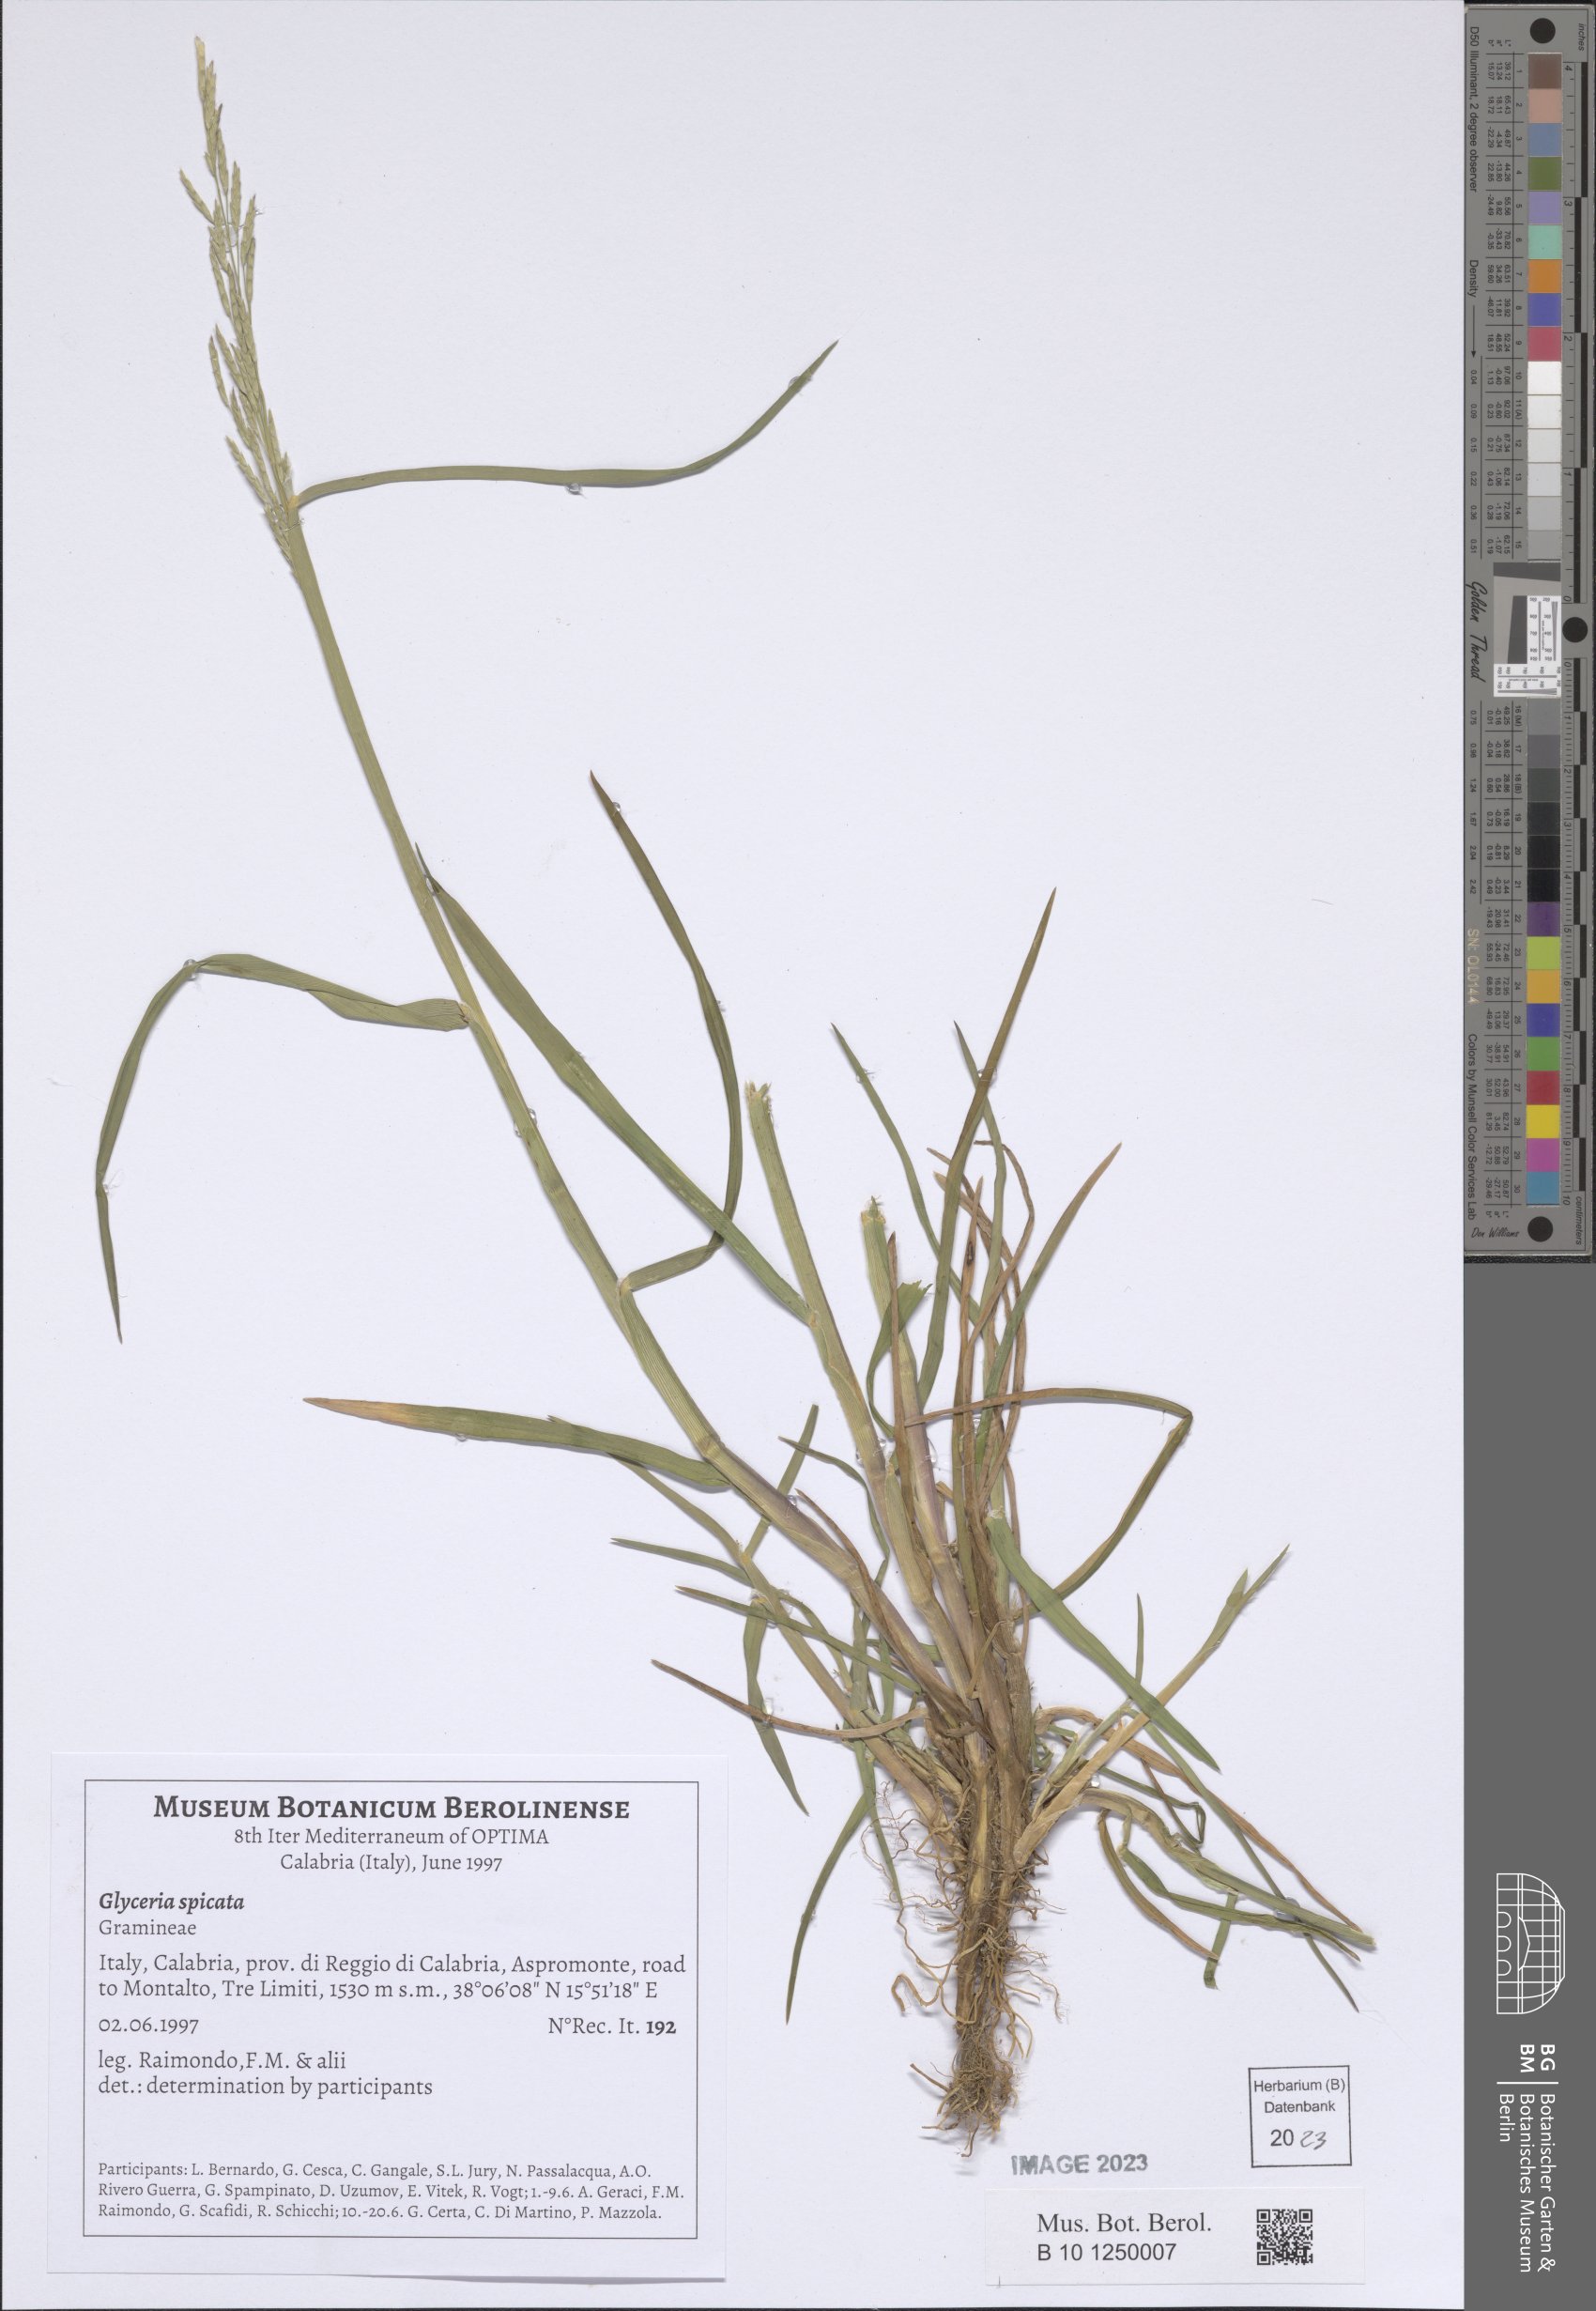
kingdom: Plantae
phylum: Tracheophyta
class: Liliopsida
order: Poales
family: Poaceae
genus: Glyceria
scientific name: Glyceria spicata
